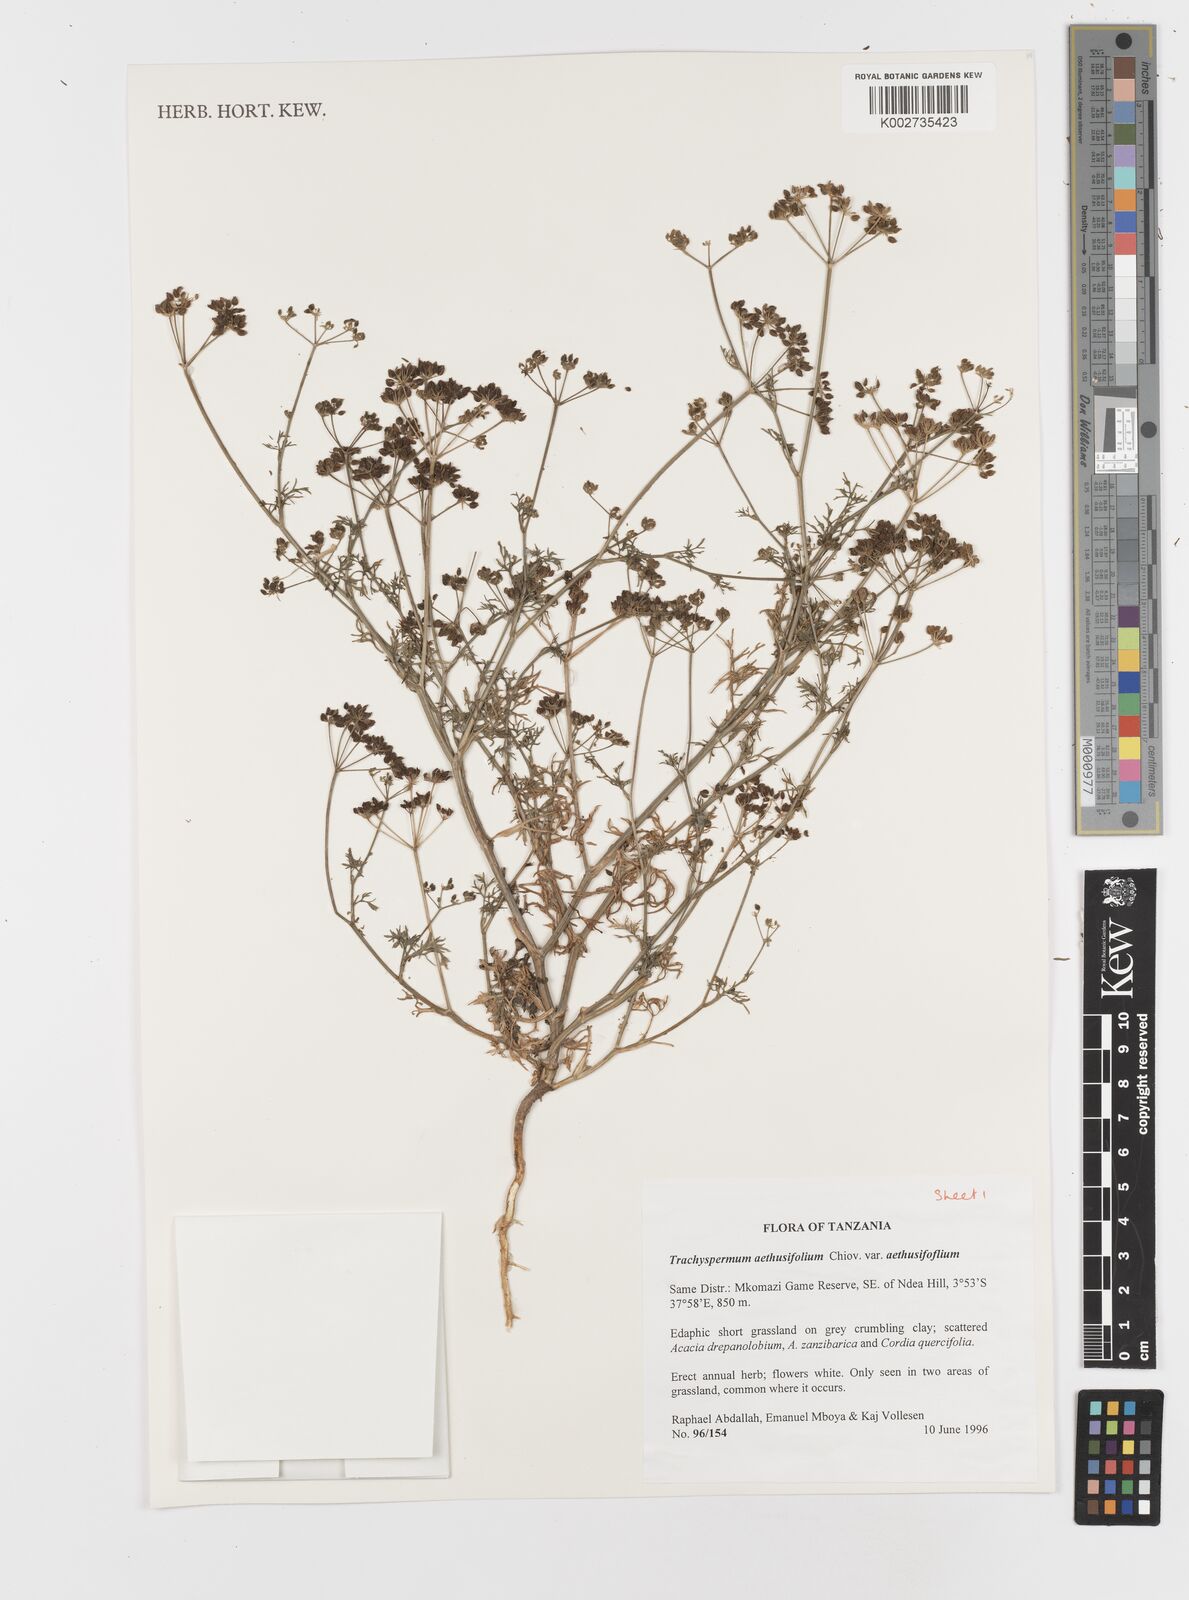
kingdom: Plantae
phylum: Tracheophyta
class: Magnoliopsida
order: Apiales
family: Apiaceae
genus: Trachyspermum
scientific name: Trachyspermum pimpinelloides
